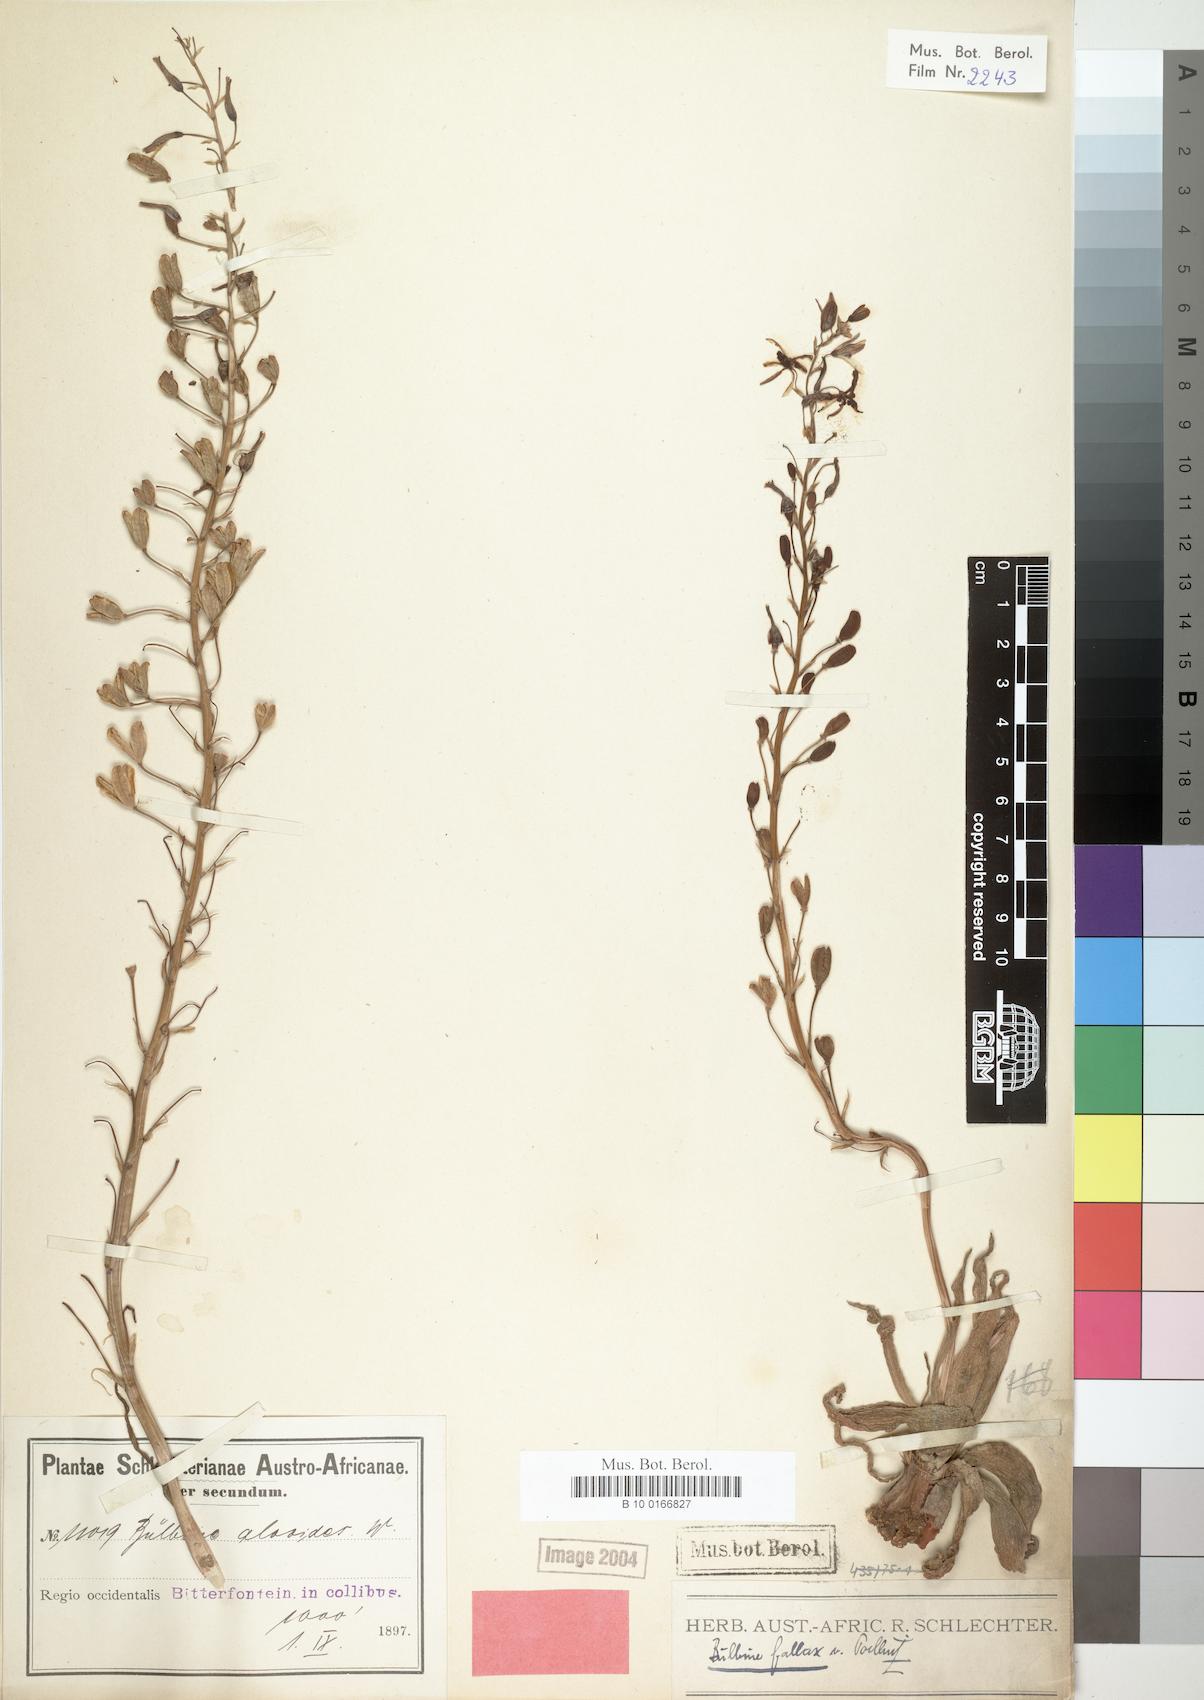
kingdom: Plantae
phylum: Tracheophyta
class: Liliopsida
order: Asparagales
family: Asphodelaceae
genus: Bulbine
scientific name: Bulbine fallax
